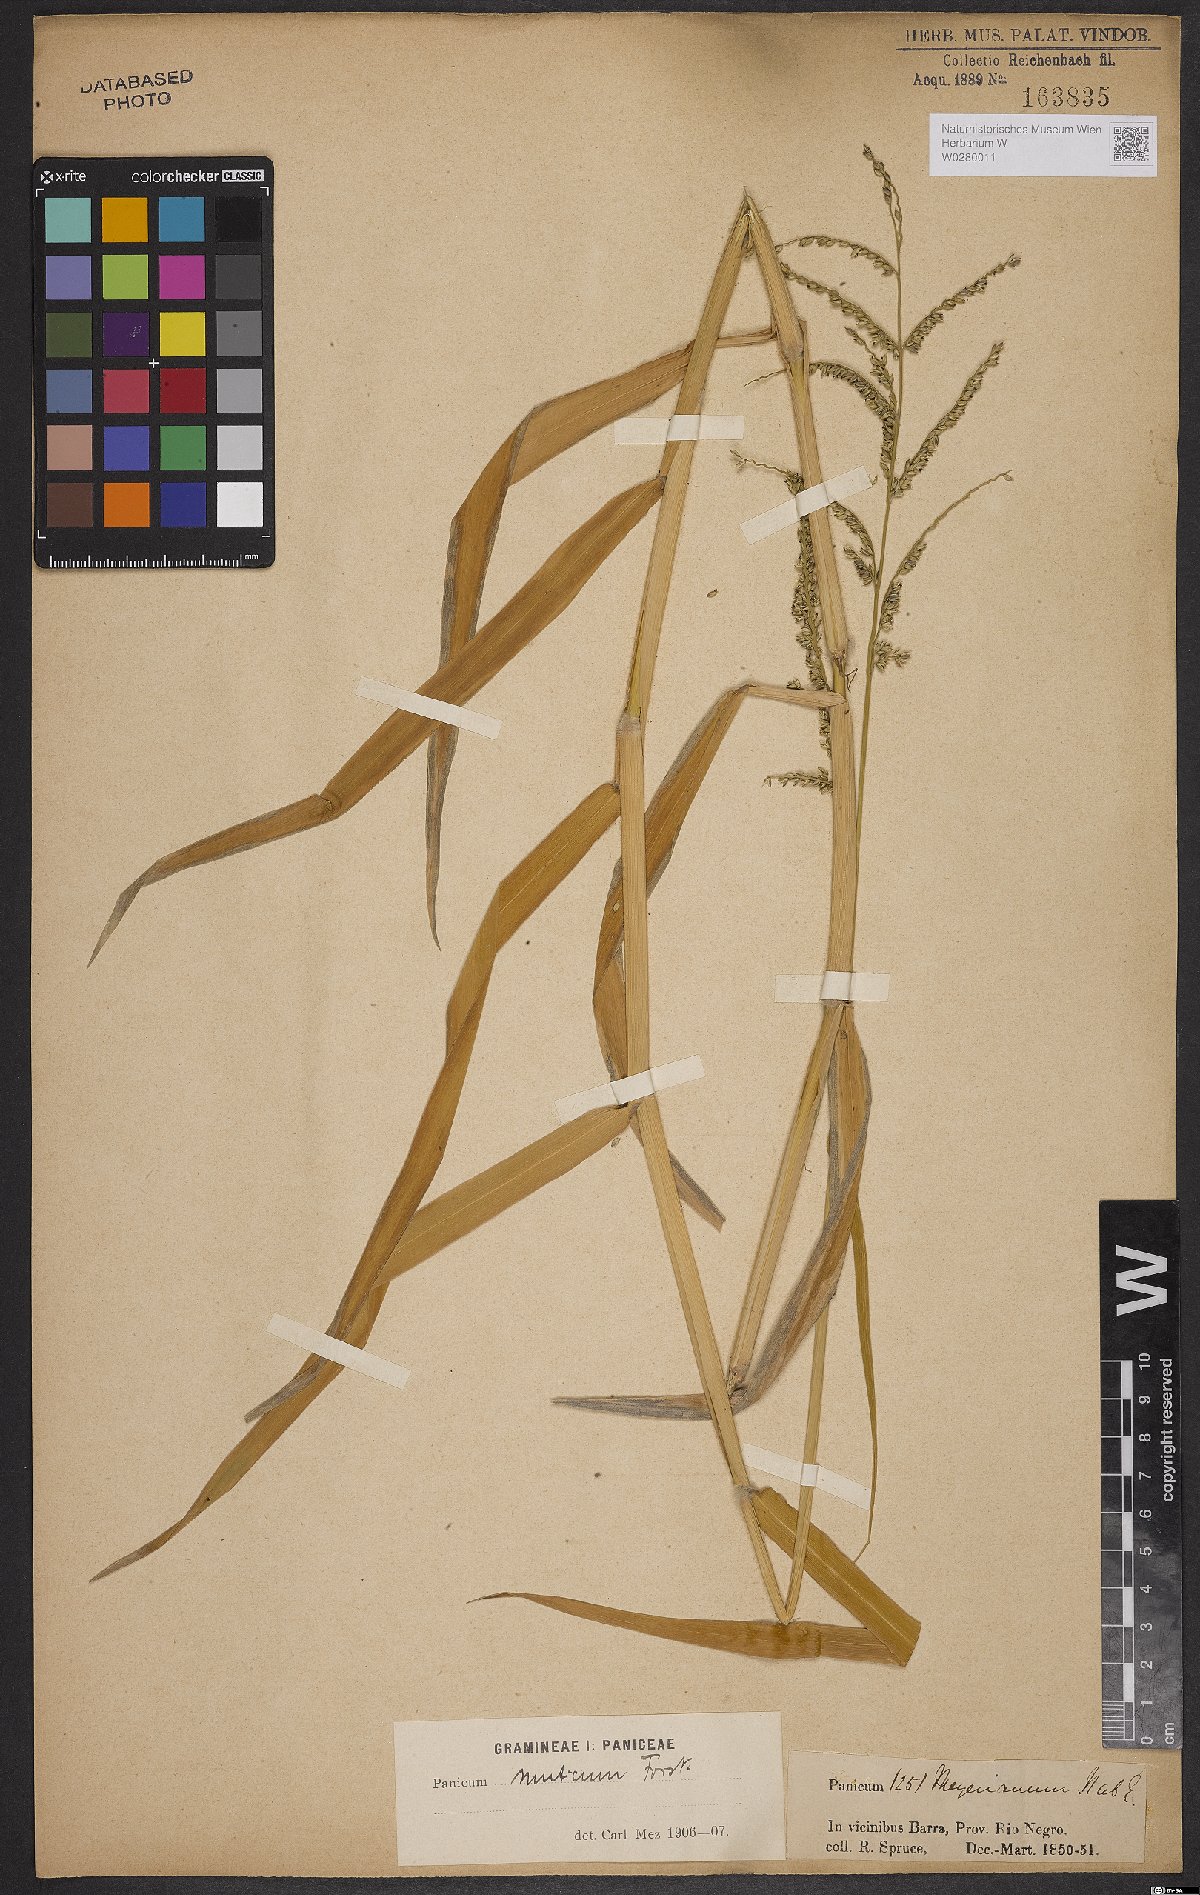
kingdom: Plantae
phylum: Tracheophyta
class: Liliopsida
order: Poales
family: Poaceae
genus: Urochloa
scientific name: Urochloa mutica
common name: Para grass
